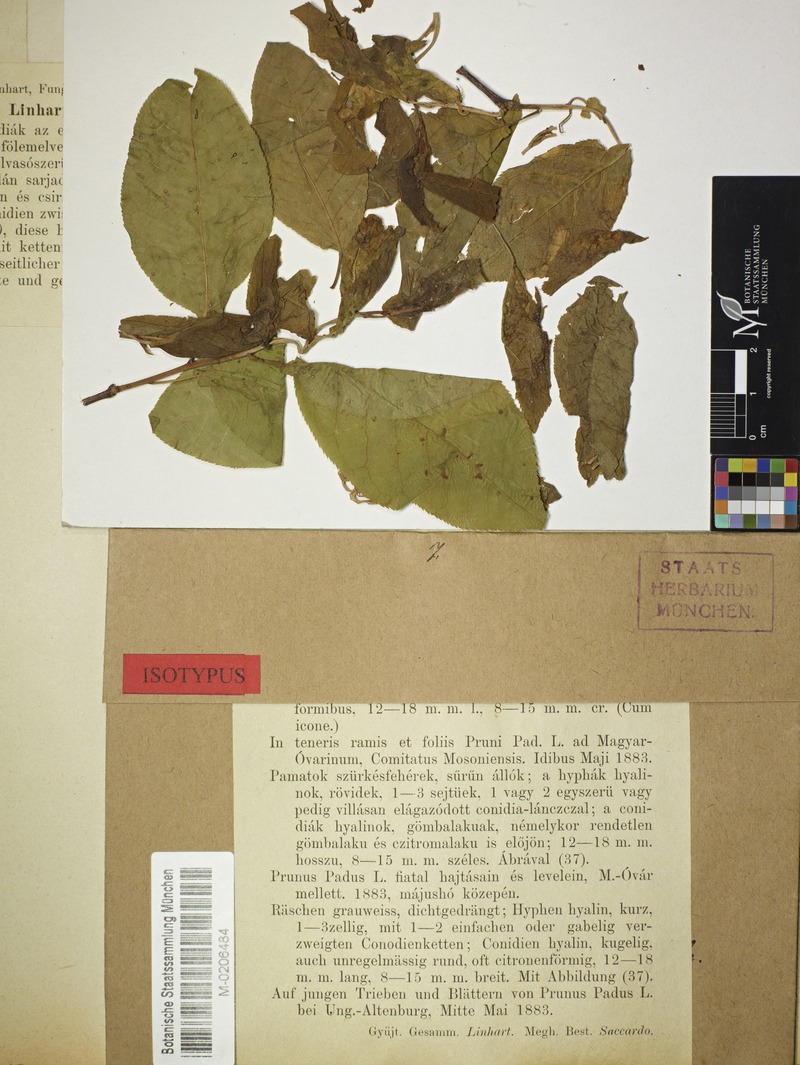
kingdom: Fungi
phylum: Ascomycota
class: Leotiomycetes
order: Helotiales
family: Sclerotiniaceae
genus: Monilinia
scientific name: Monilinia padi
